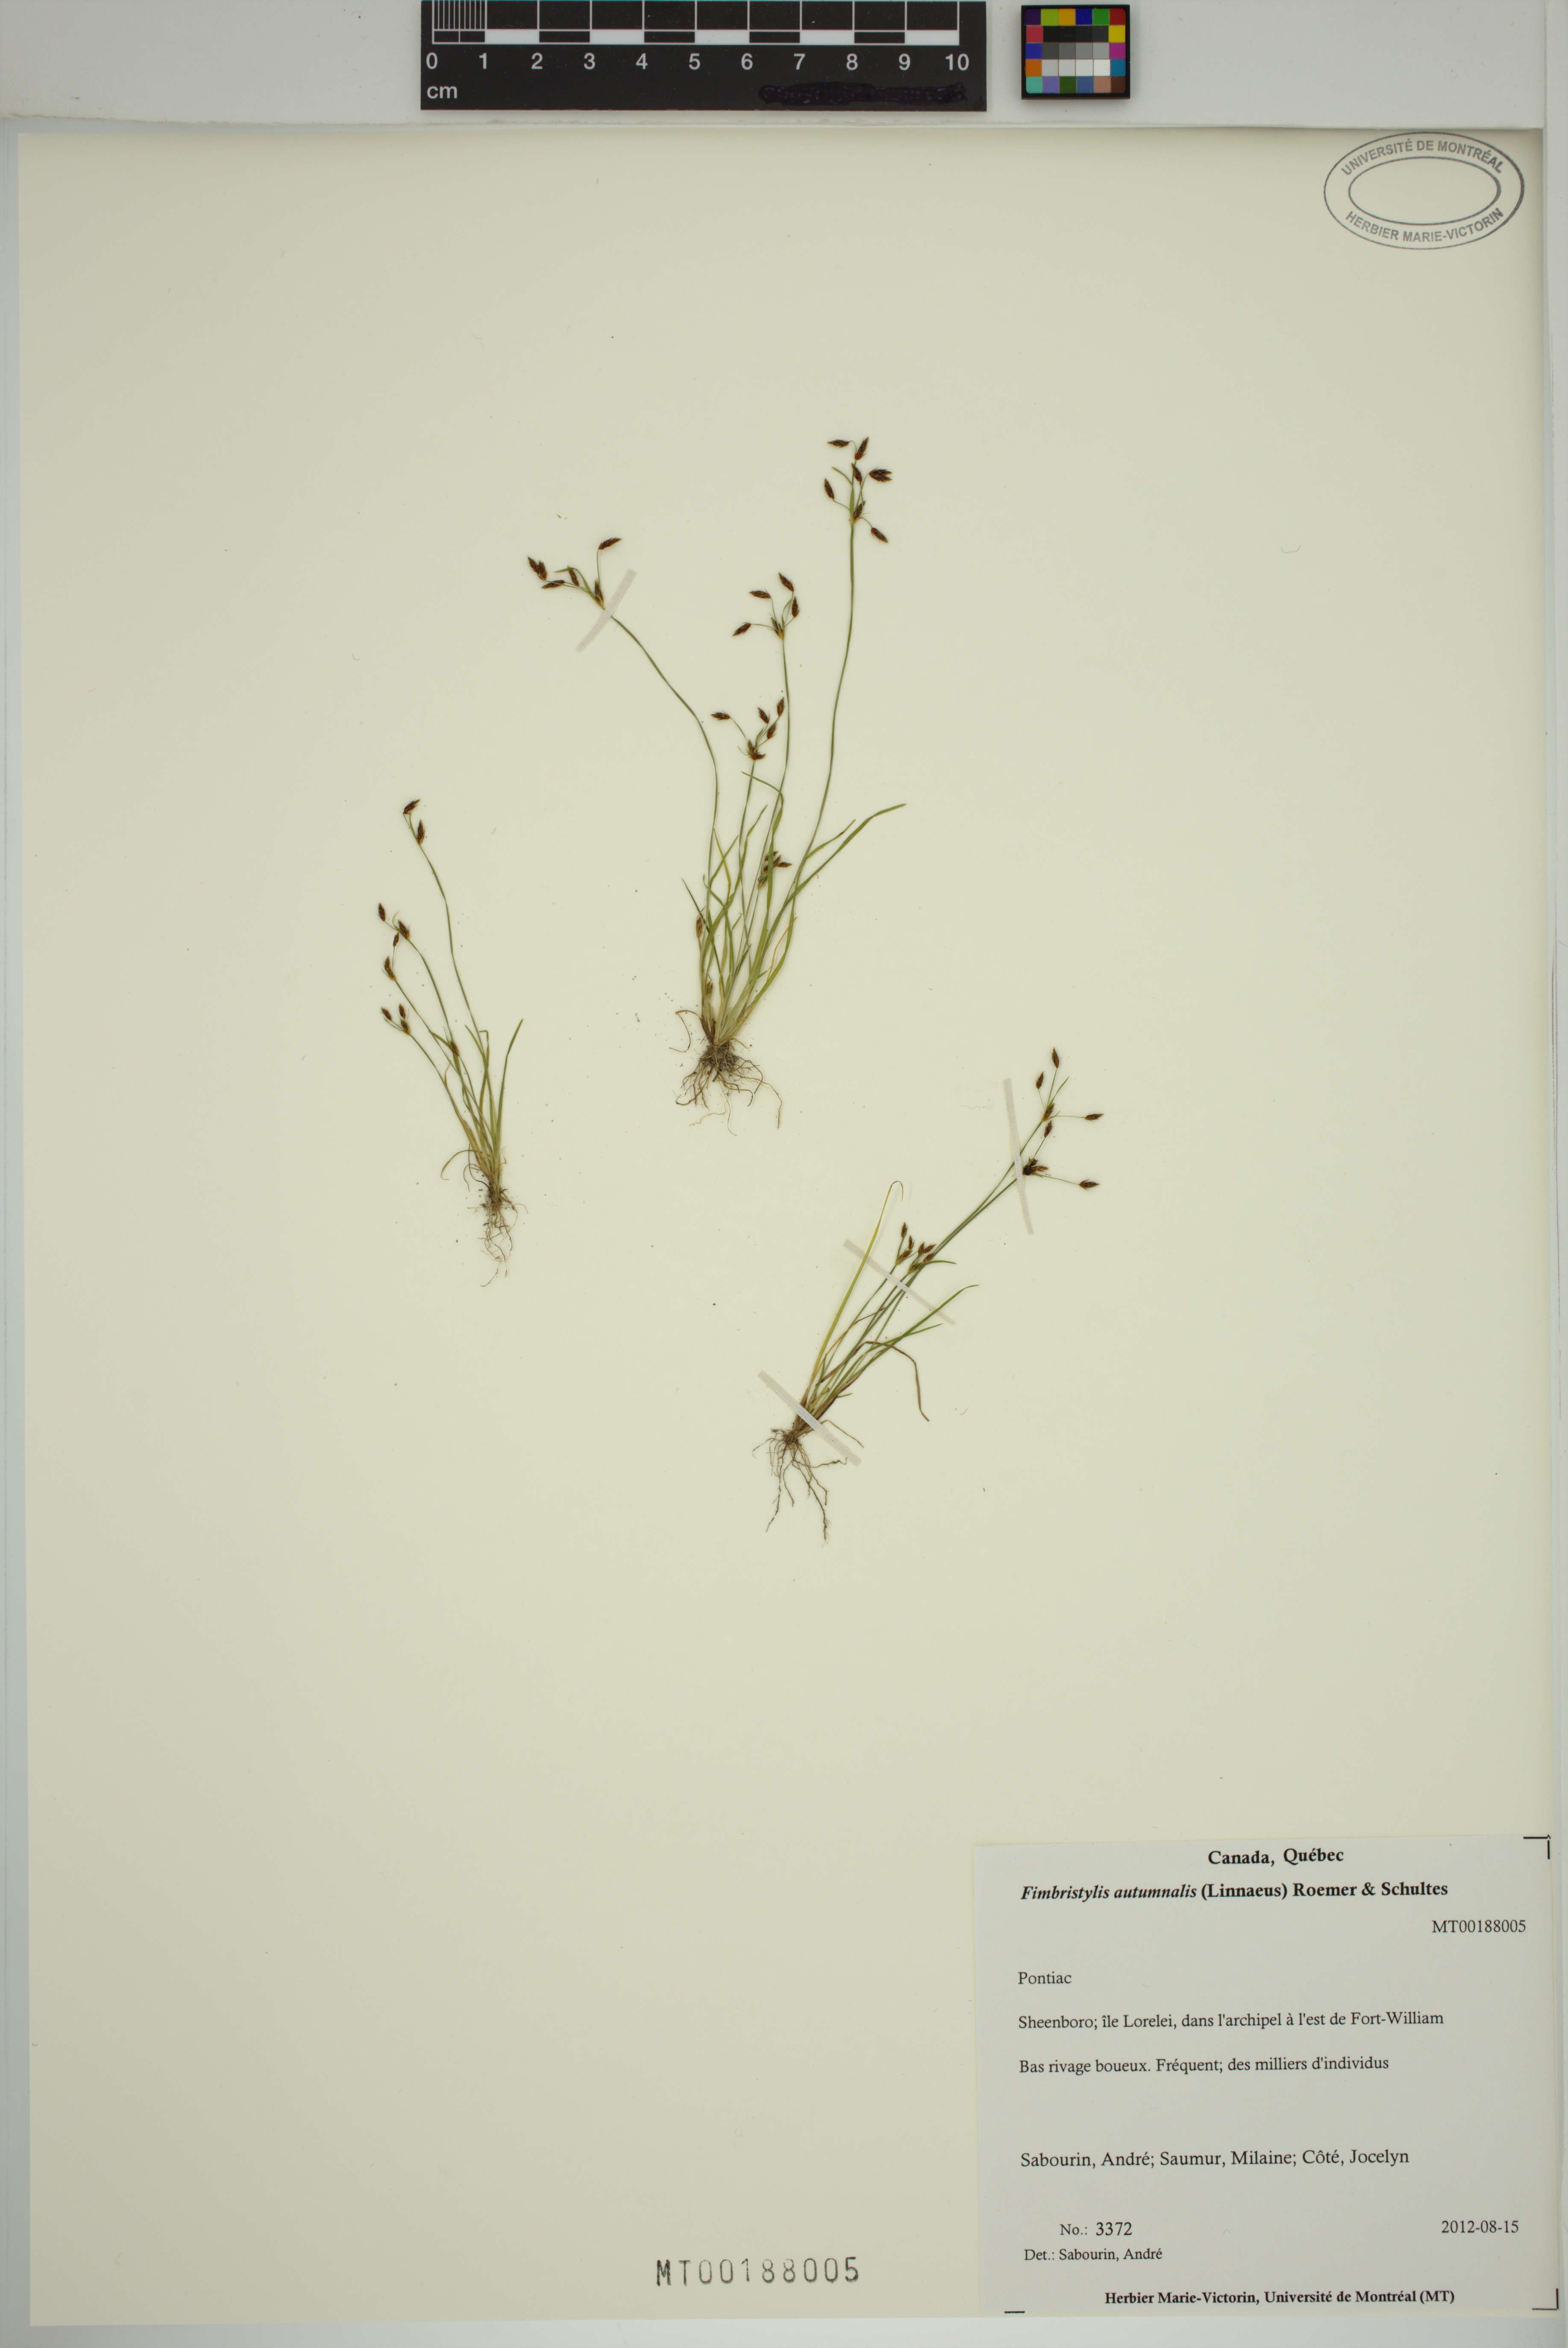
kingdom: Plantae
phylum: Tracheophyta
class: Liliopsida
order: Poales
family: Cyperaceae
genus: Fimbristylis
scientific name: Fimbristylis autumnalis
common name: Slender fimbristylis
